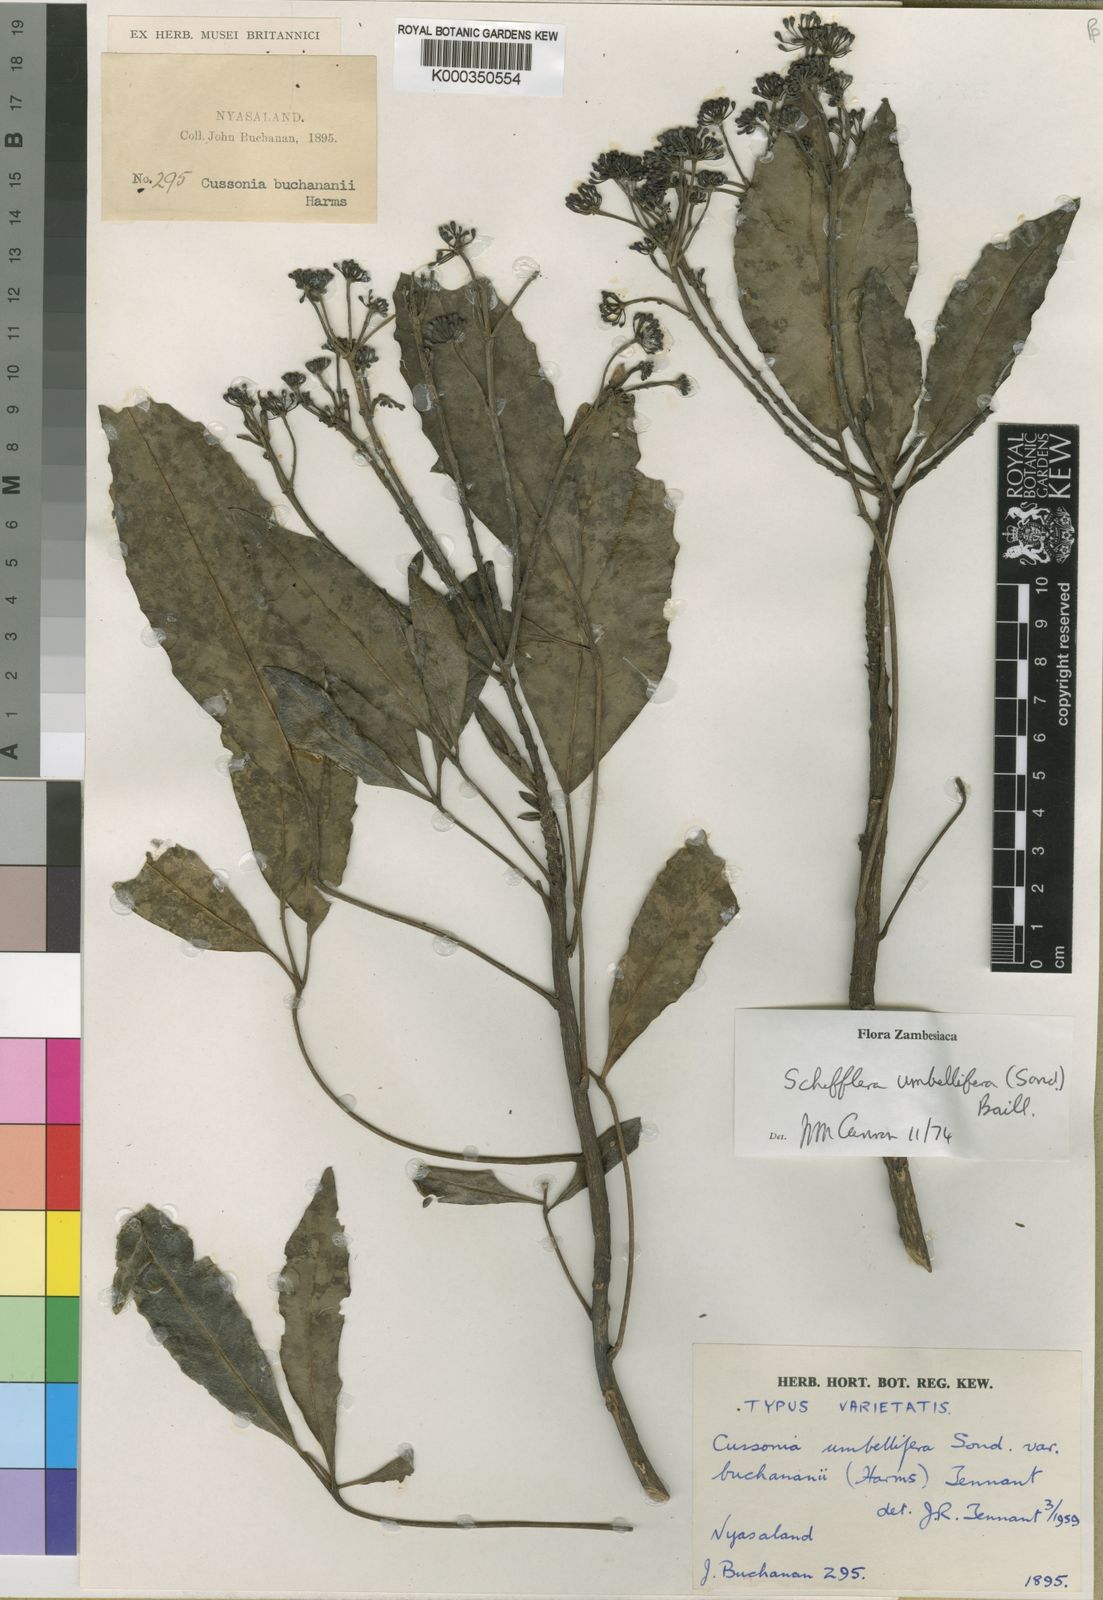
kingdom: Plantae
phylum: Tracheophyta
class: Magnoliopsida
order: Apiales
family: Araliaceae
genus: Neocussonia
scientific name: Neocussonia umbellifera
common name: False cabbage tree
